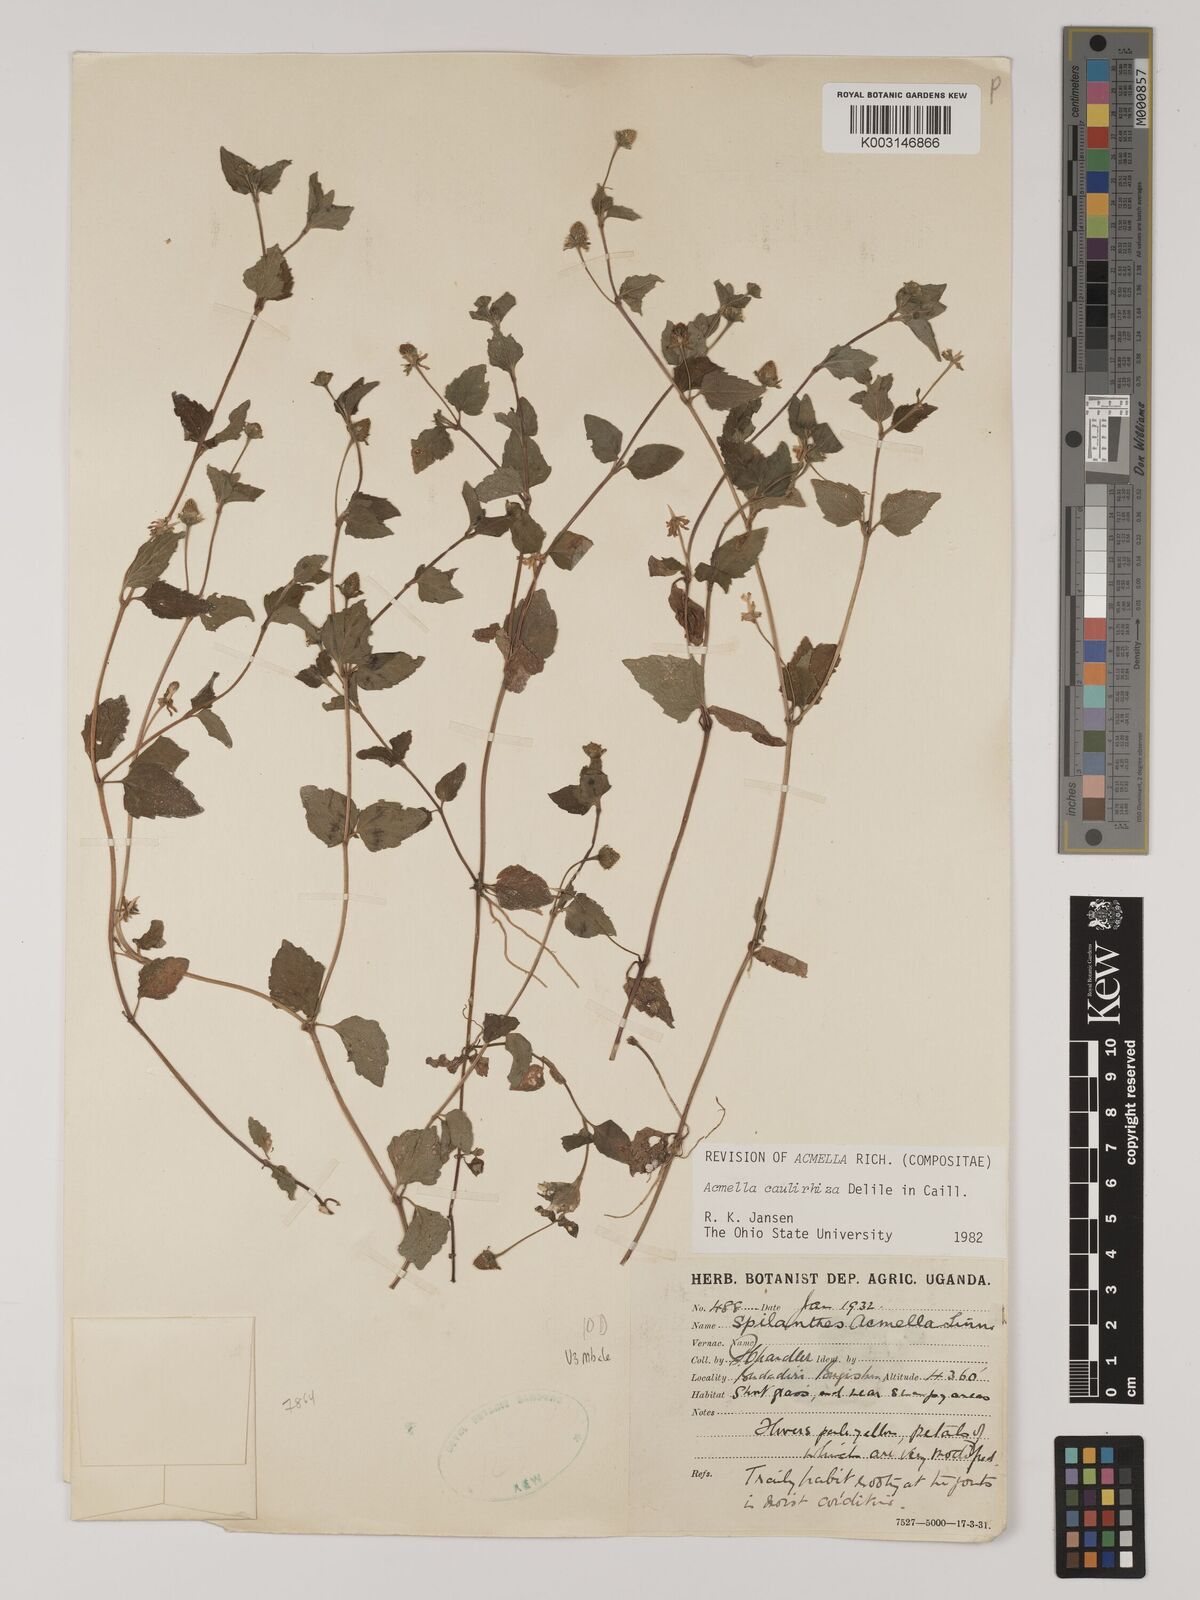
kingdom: Plantae
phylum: Tracheophyta
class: Magnoliopsida
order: Asterales
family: Asteraceae
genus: Acmella
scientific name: Acmella caulirhiza
